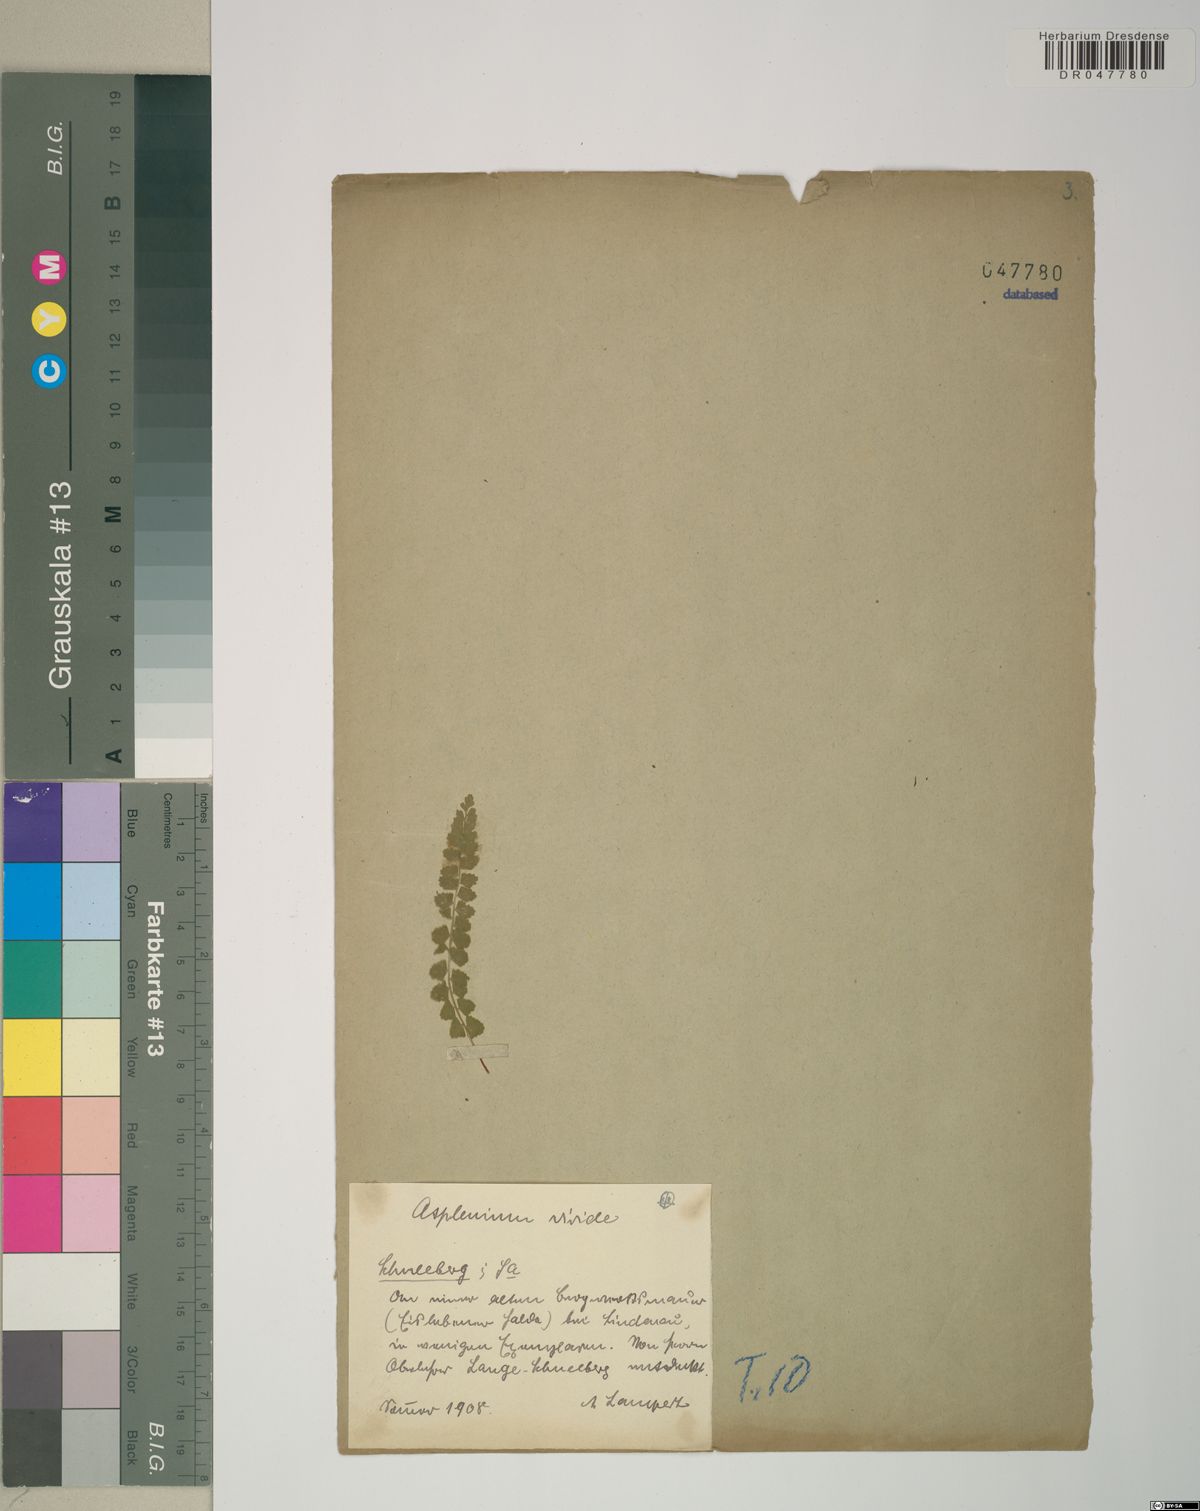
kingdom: Plantae
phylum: Tracheophyta
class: Polypodiopsida
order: Polypodiales
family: Aspleniaceae
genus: Asplenium
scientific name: Asplenium viride
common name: Green spleenwort
